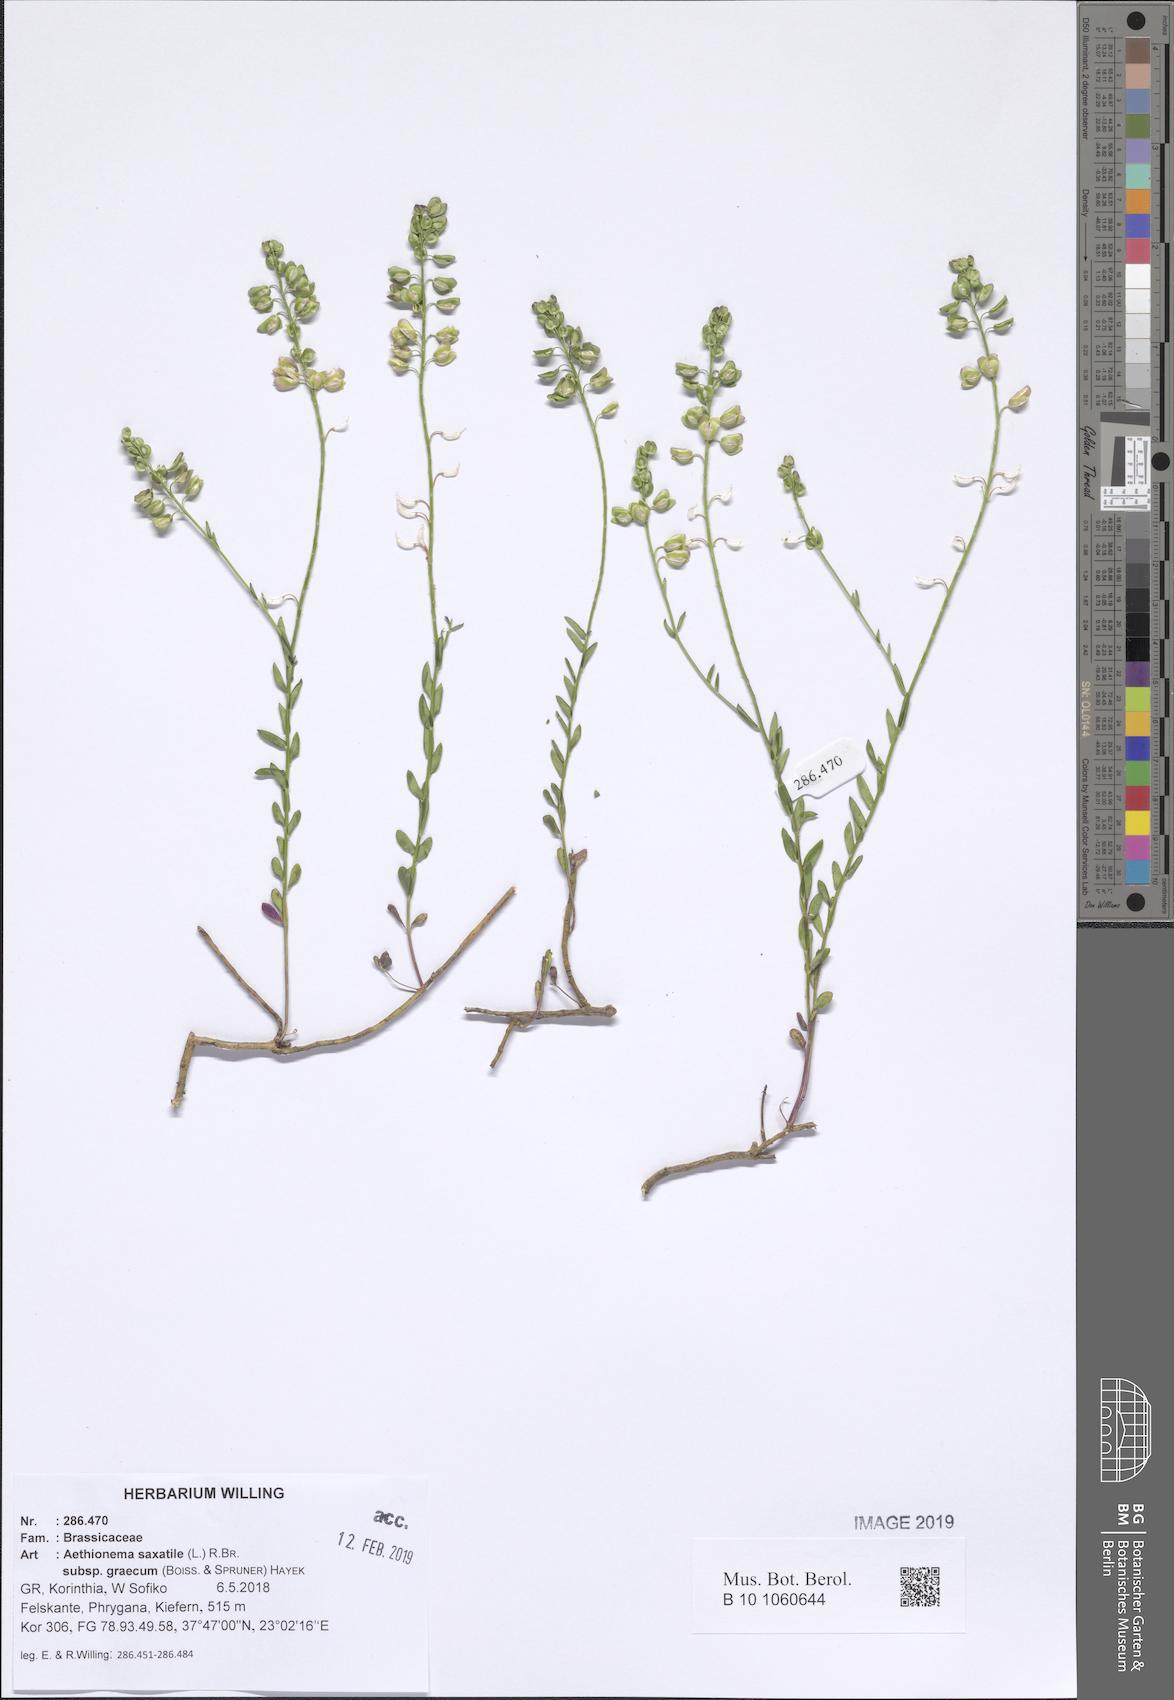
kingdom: Plantae
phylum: Tracheophyta
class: Magnoliopsida
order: Brassicales
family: Brassicaceae
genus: Aethionema
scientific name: Aethionema saxatile
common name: Burnt candytuft
